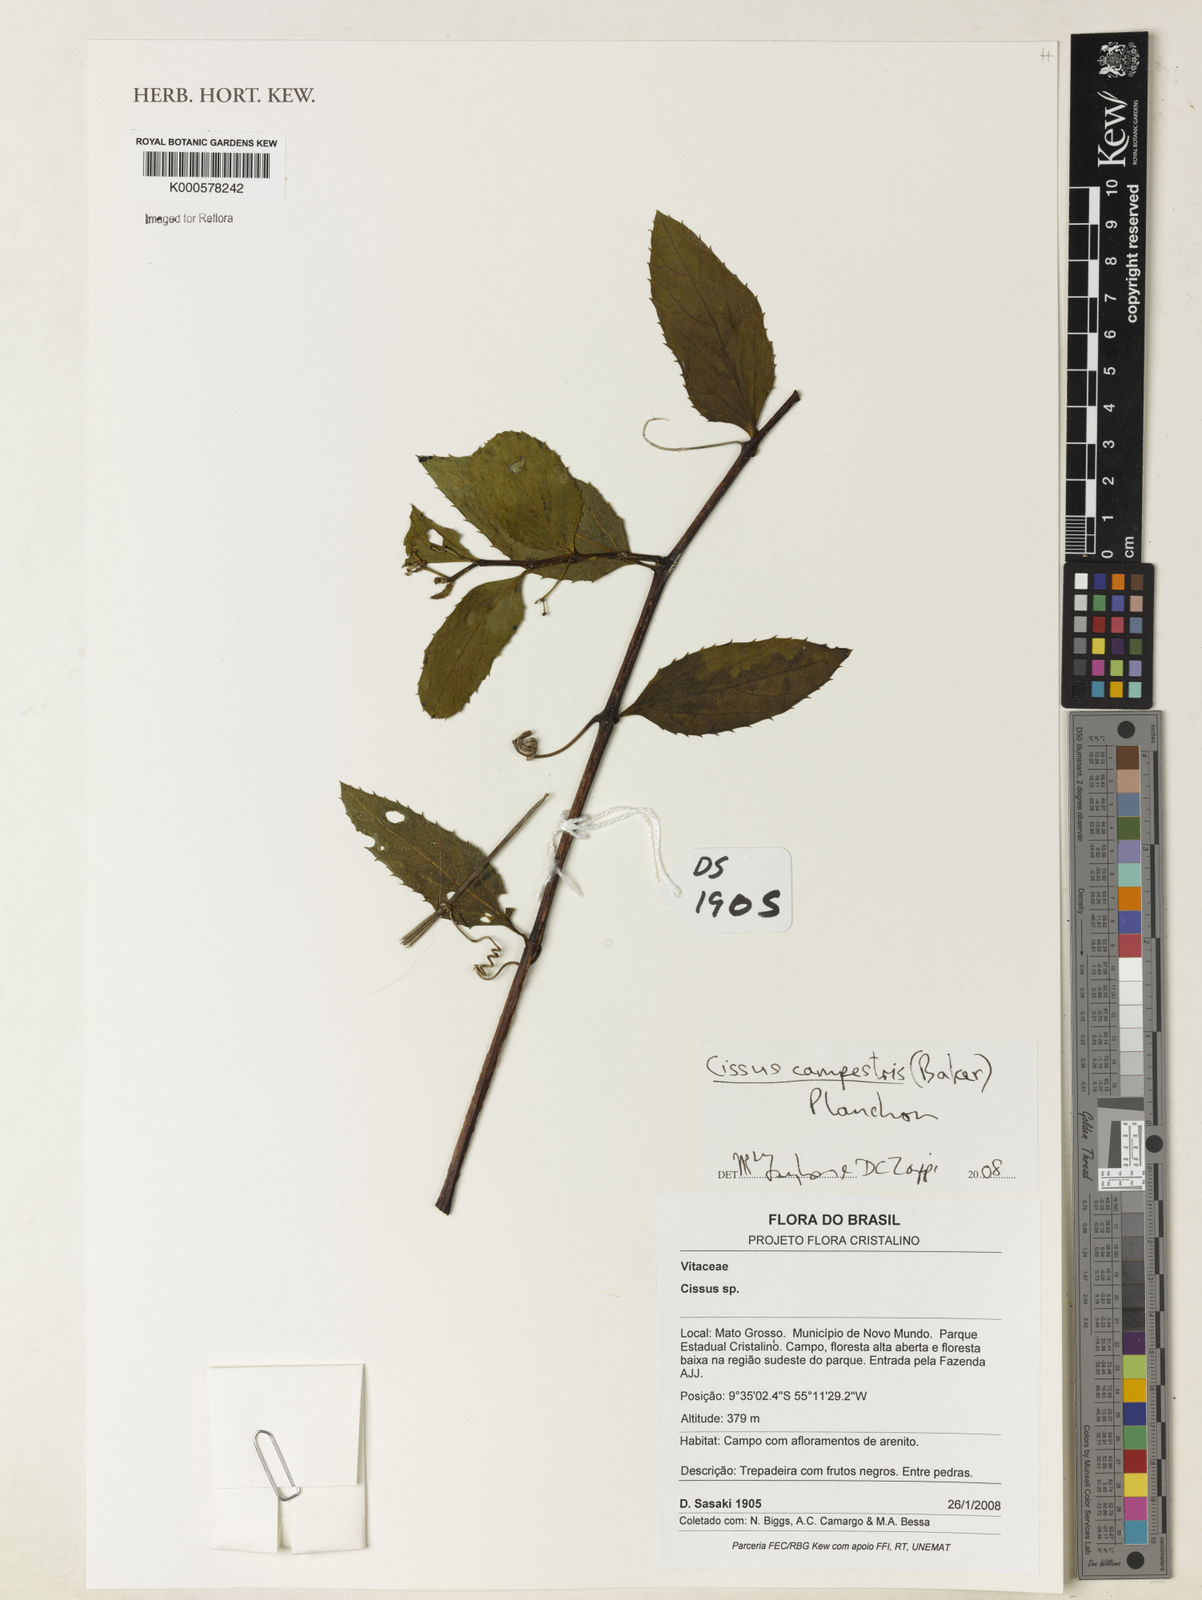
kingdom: Plantae
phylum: Tracheophyta
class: Magnoliopsida
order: Vitales
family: Vitaceae
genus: Cissus
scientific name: Cissus campestris
